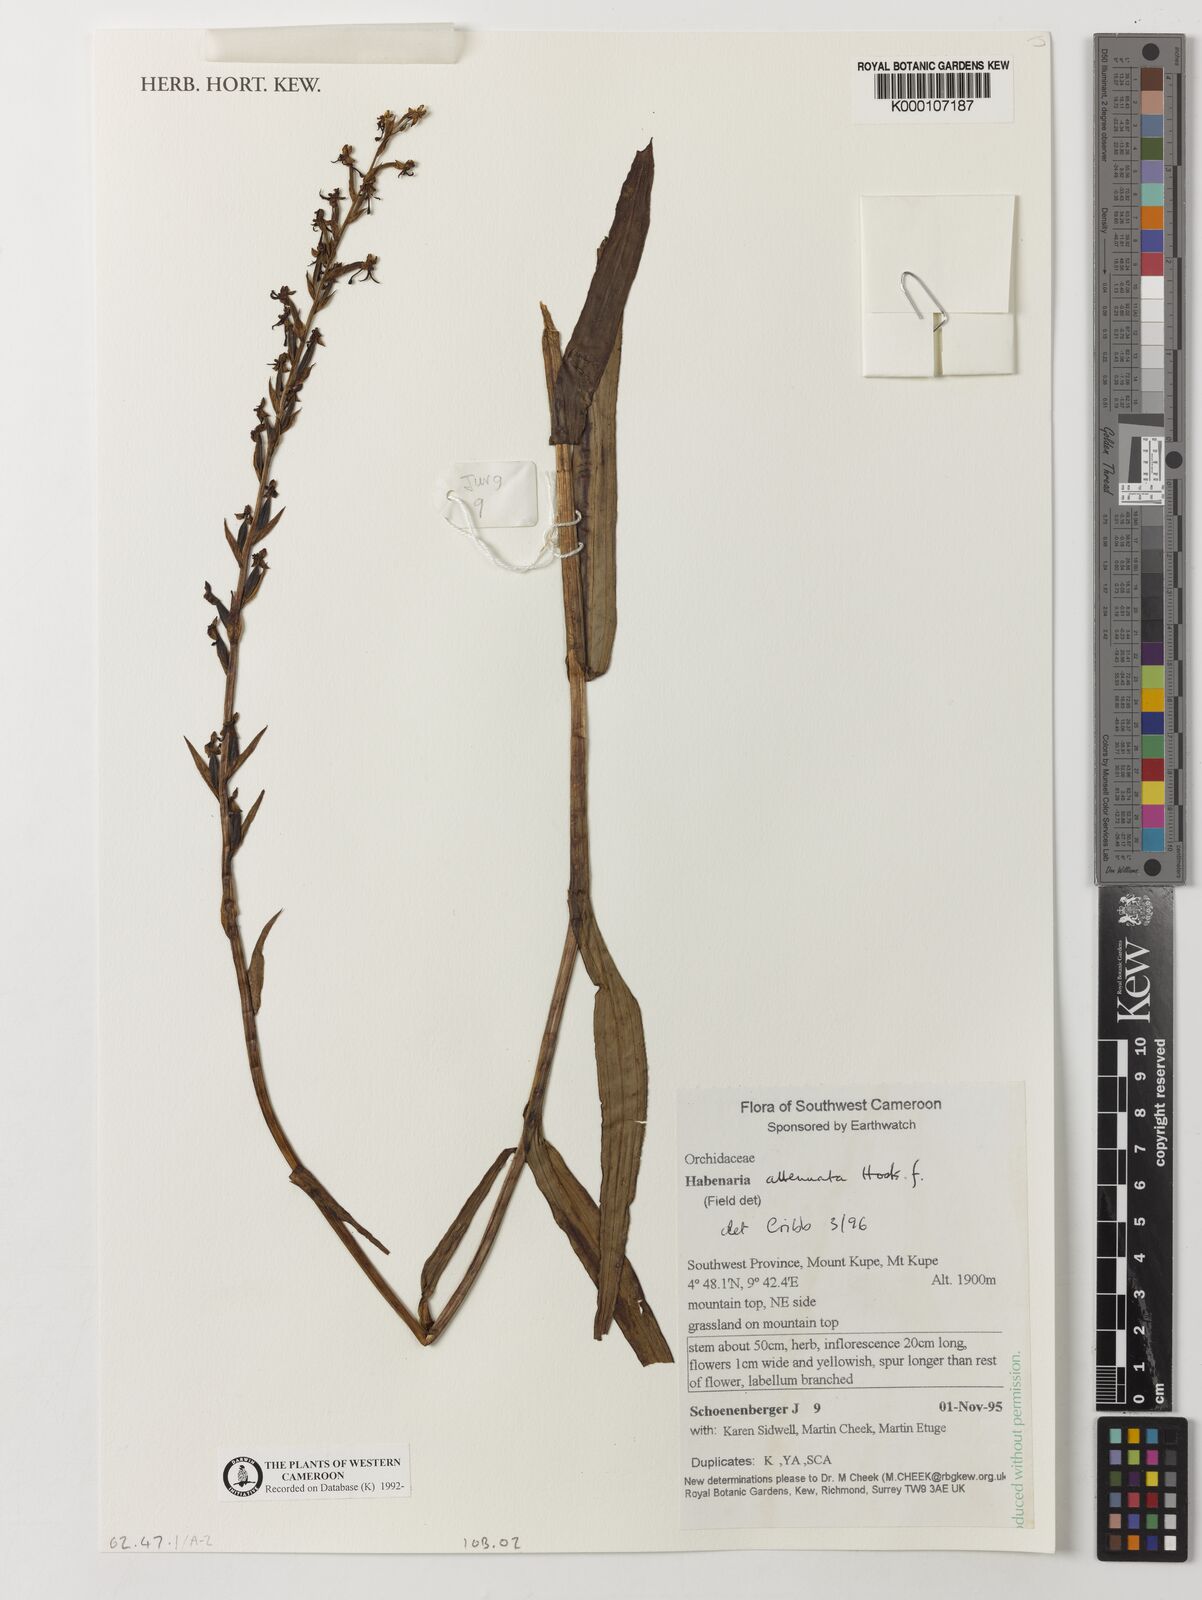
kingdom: Plantae
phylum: Tracheophyta
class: Liliopsida
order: Asparagales
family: Orchidaceae
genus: Habenaria
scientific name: Habenaria attenuata
